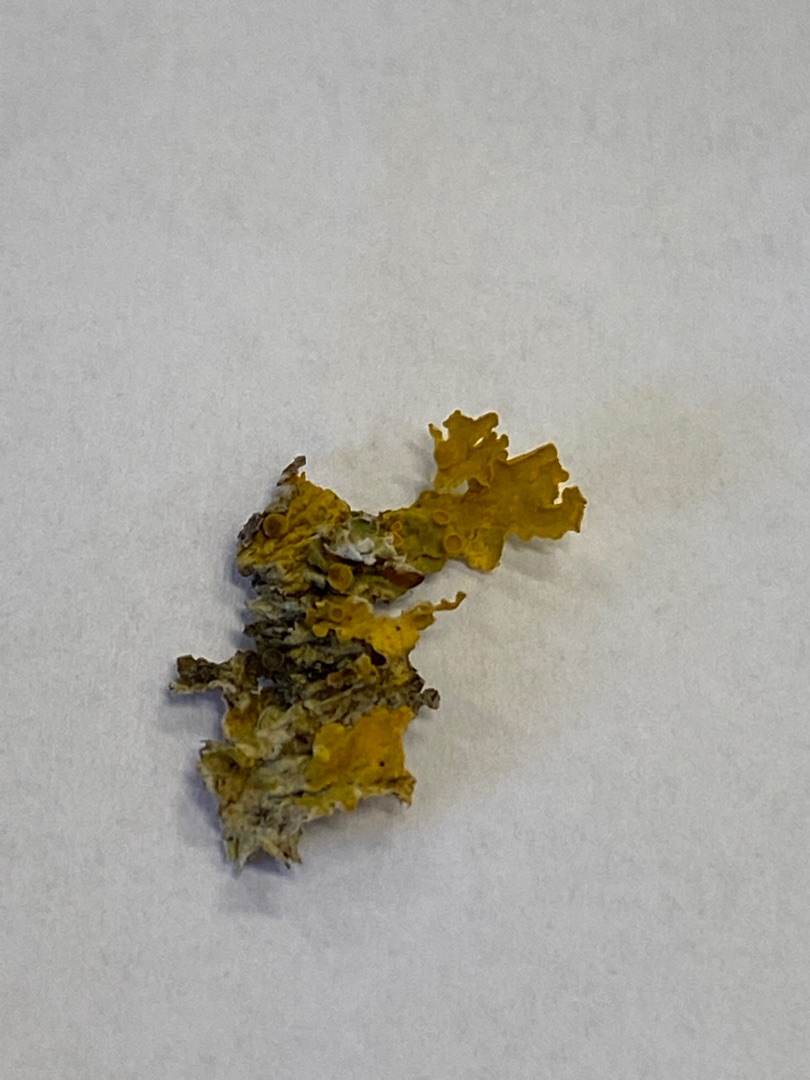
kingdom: Fungi
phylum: Ascomycota
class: Lecanoromycetes
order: Teloschistales
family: Teloschistaceae
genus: Xanthoria
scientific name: Xanthoria parietina
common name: Almindelig væggelav
